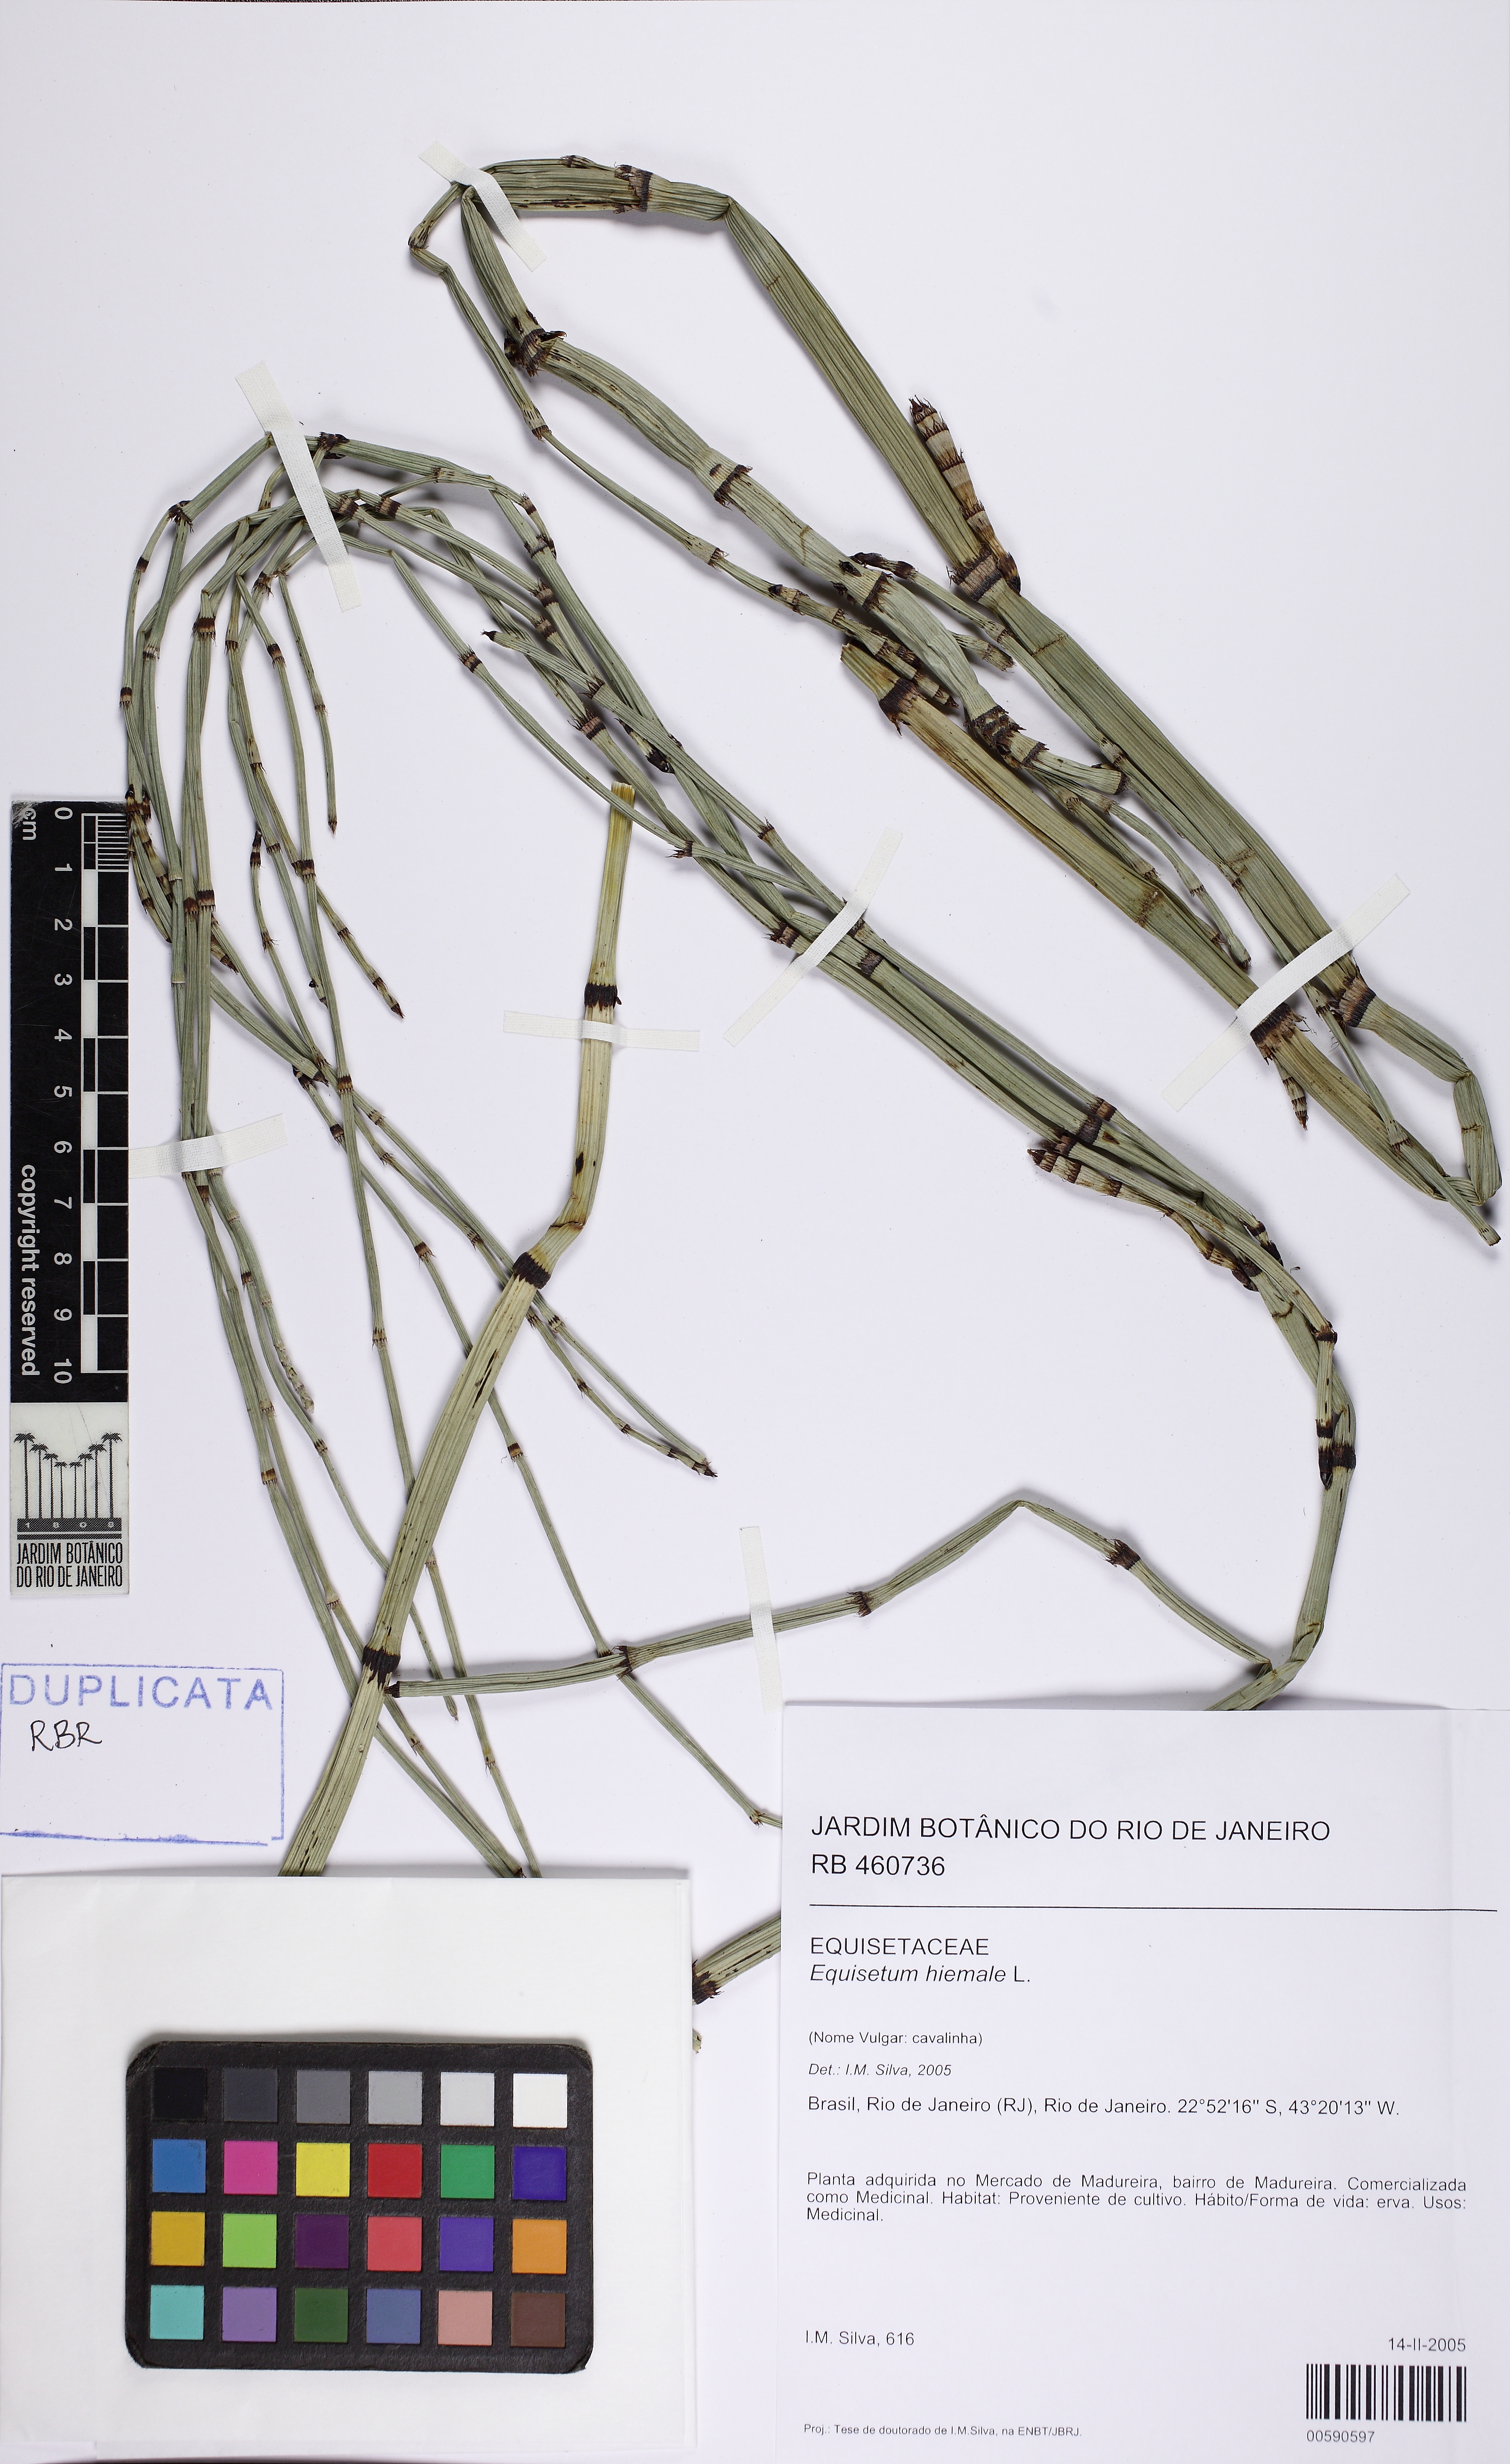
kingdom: Plantae
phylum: Tracheophyta
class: Polypodiopsida
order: Equisetales
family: Equisetaceae
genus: Equisetum
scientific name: Equisetum hyemale
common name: Rough horsetail
